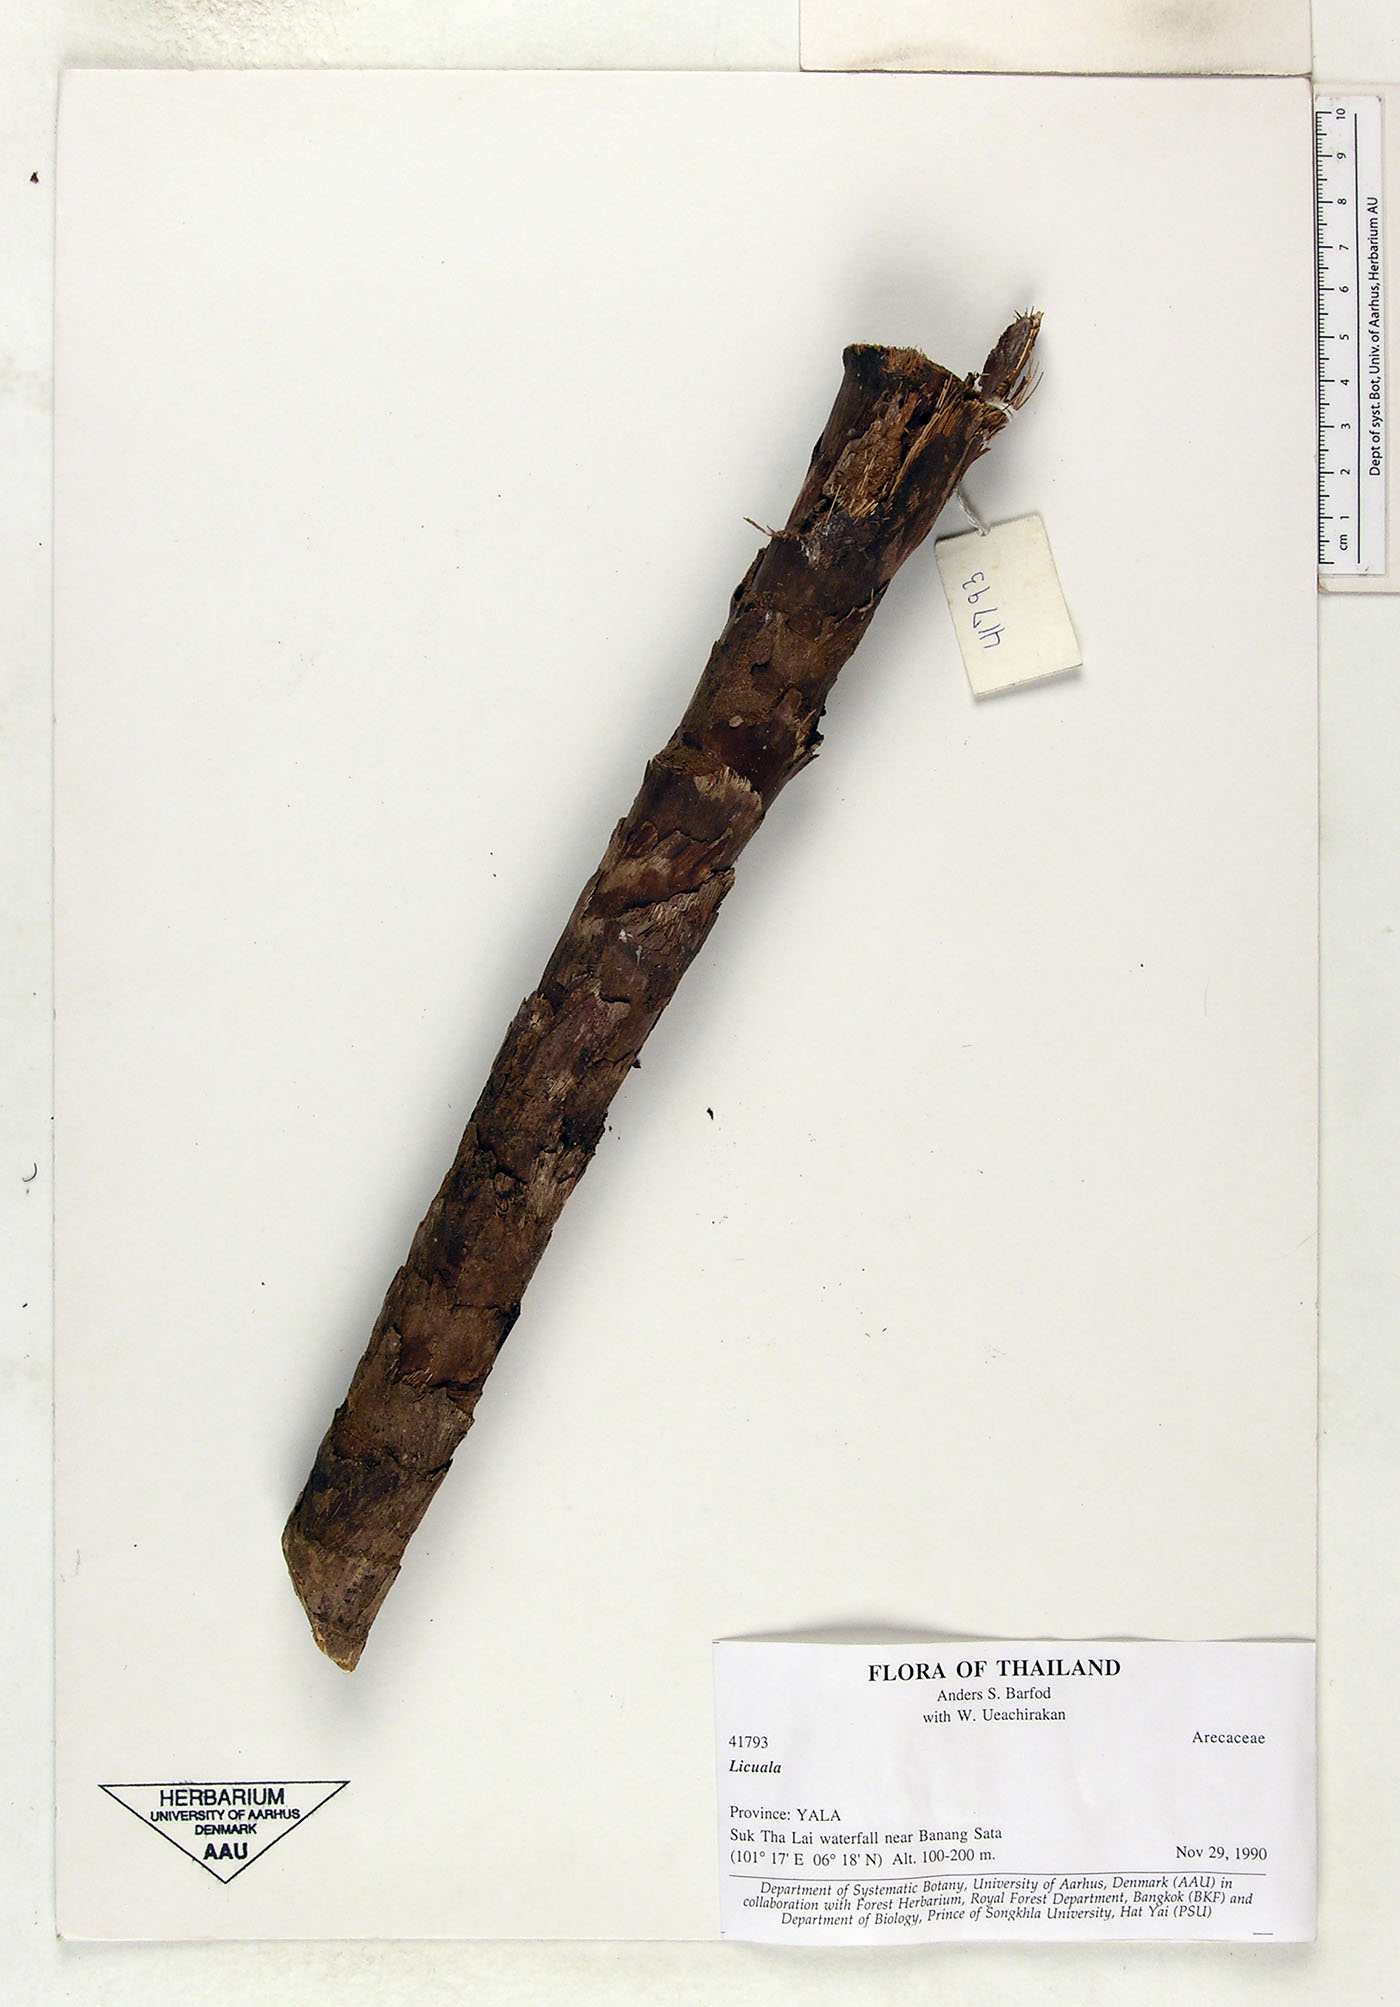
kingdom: Plantae
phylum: Tracheophyta
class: Liliopsida
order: Arecales
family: Arecaceae
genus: Licuala
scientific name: Licuala
